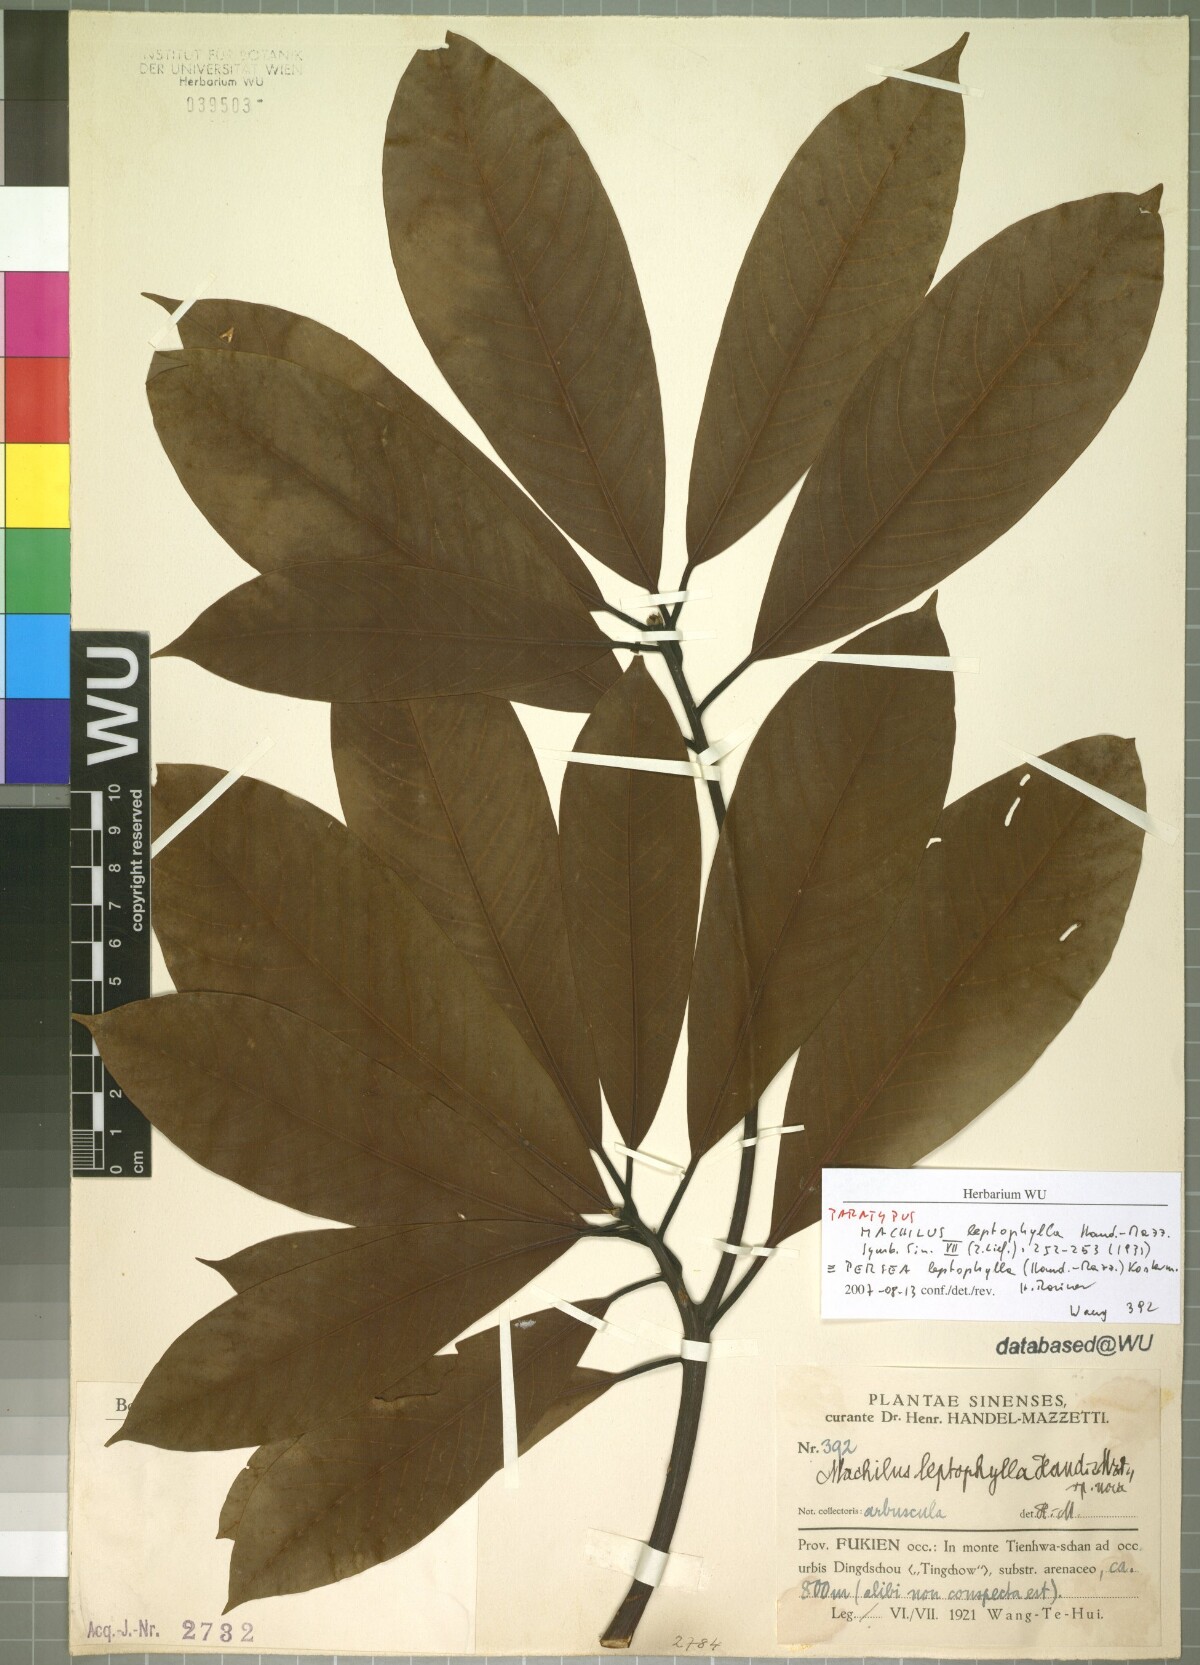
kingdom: Plantae
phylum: Tracheophyta
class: Magnoliopsida
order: Laurales
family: Lauraceae
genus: Machilus
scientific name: Machilus leptophylla
